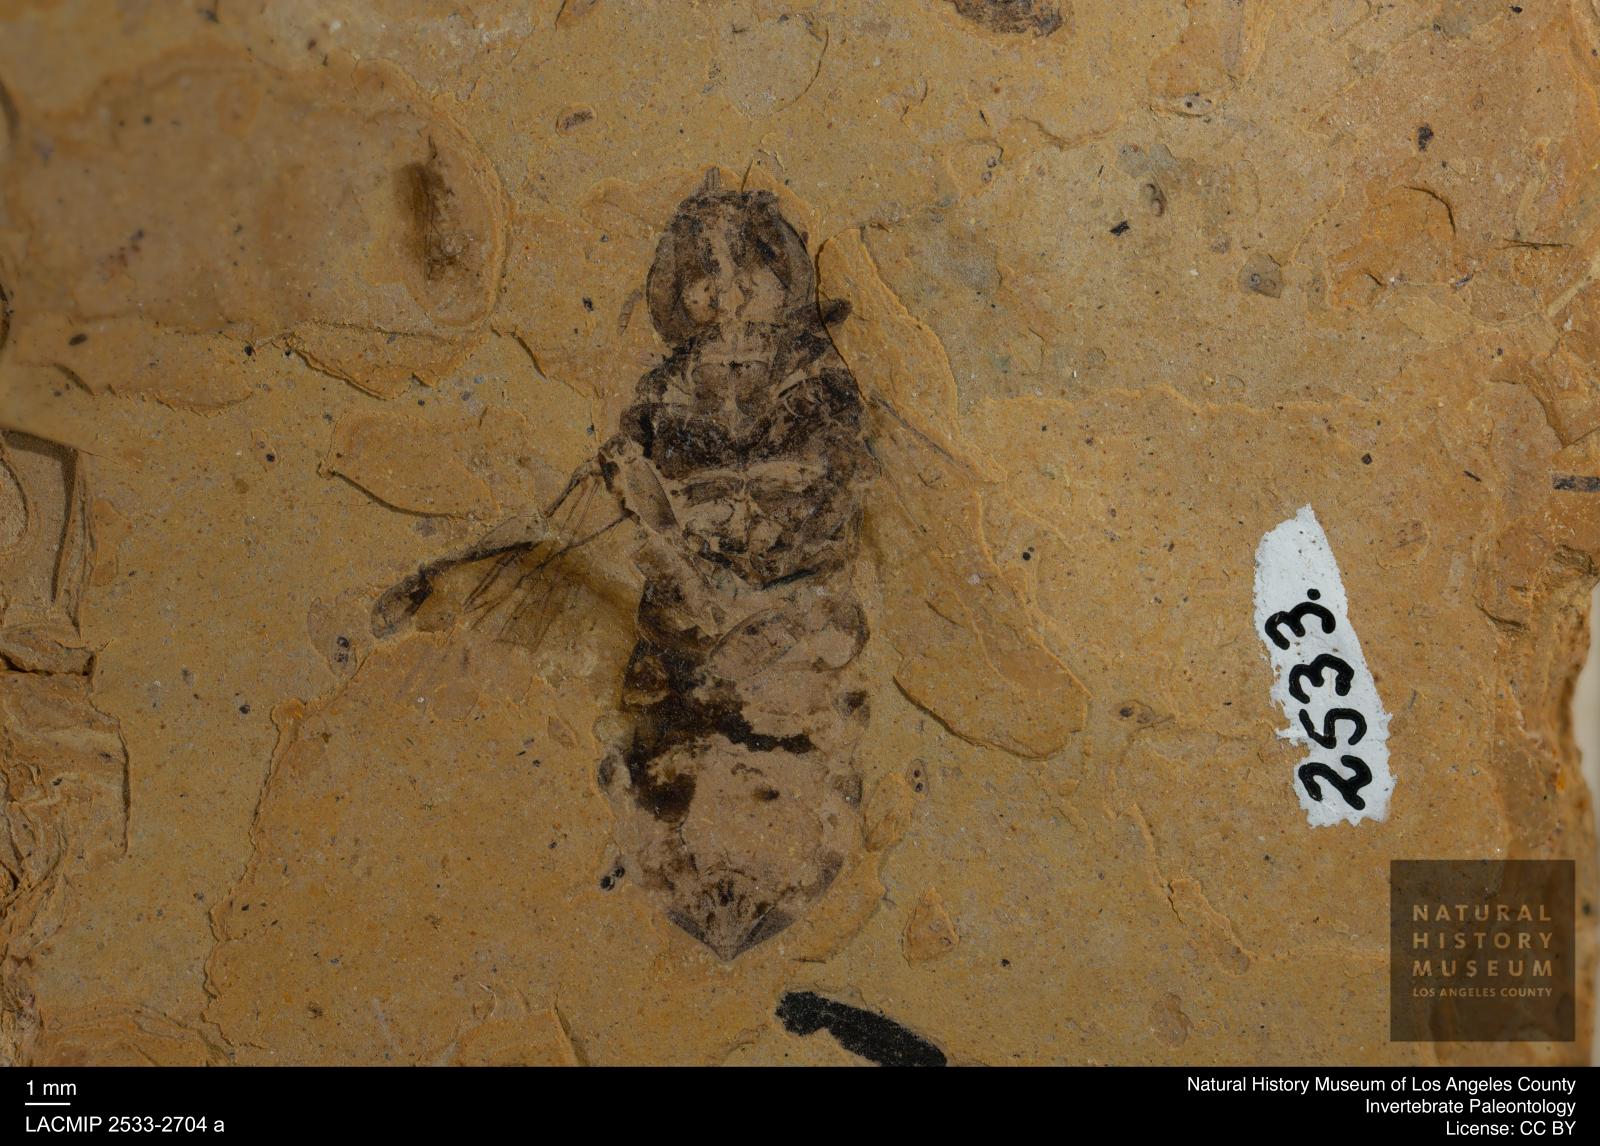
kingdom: Animalia
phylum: Arthropoda
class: Insecta
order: Hymenoptera
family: Apidae
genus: Apis
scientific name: Apis henshawi
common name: Henshaw's honey bee
